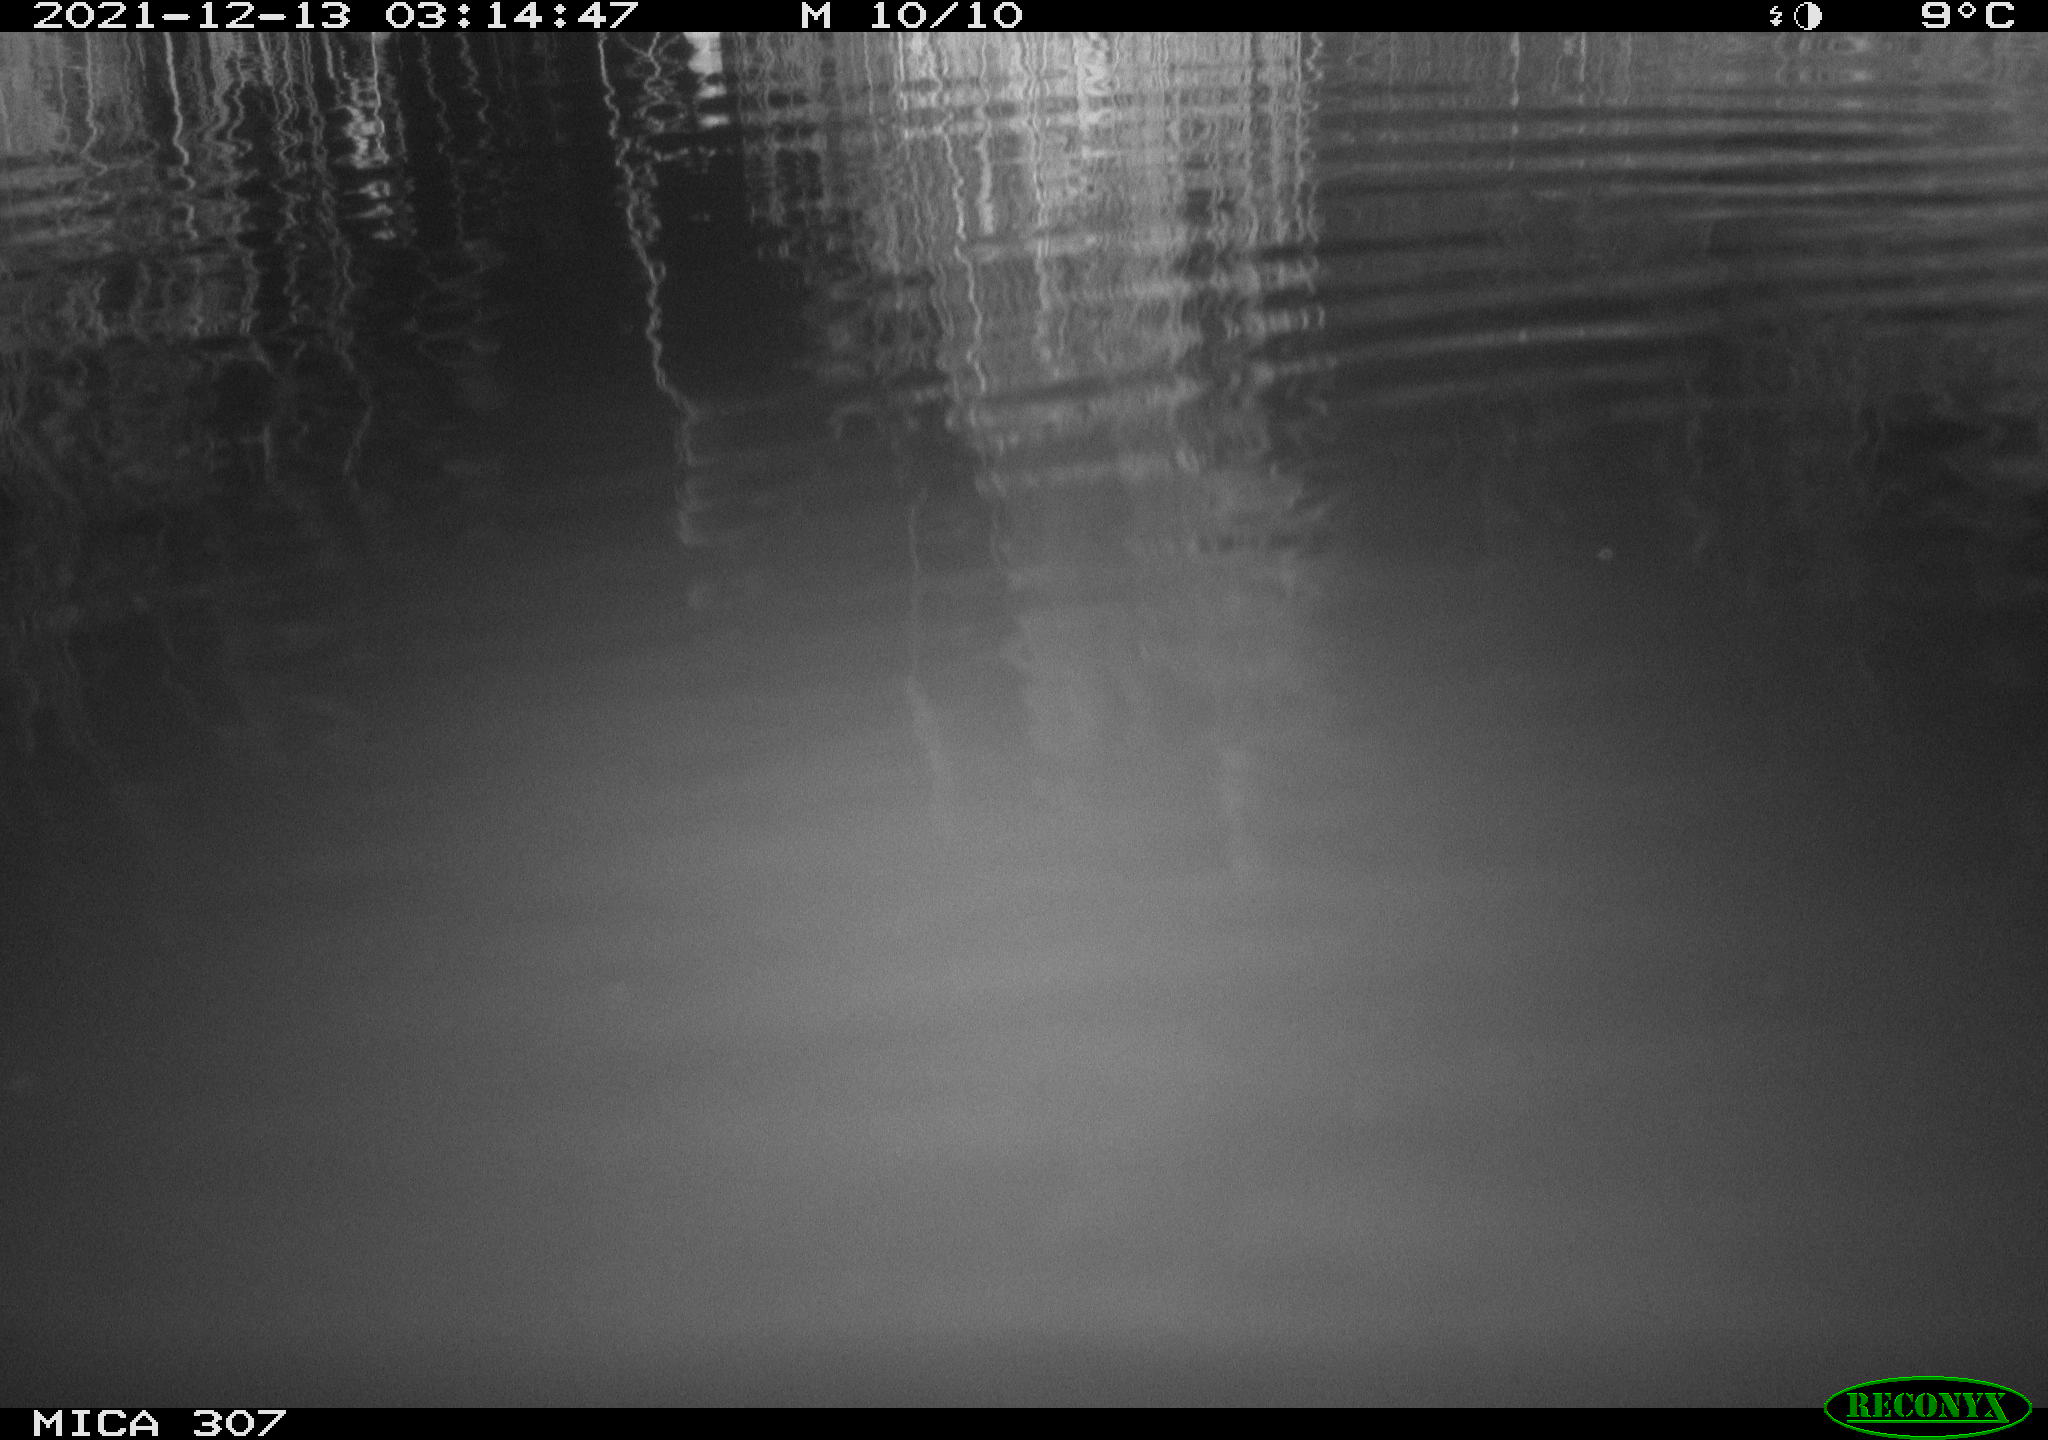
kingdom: Animalia
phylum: Chordata
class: Mammalia
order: Rodentia
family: Muridae
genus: Rattus
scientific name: Rattus norvegicus
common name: Brown rat
